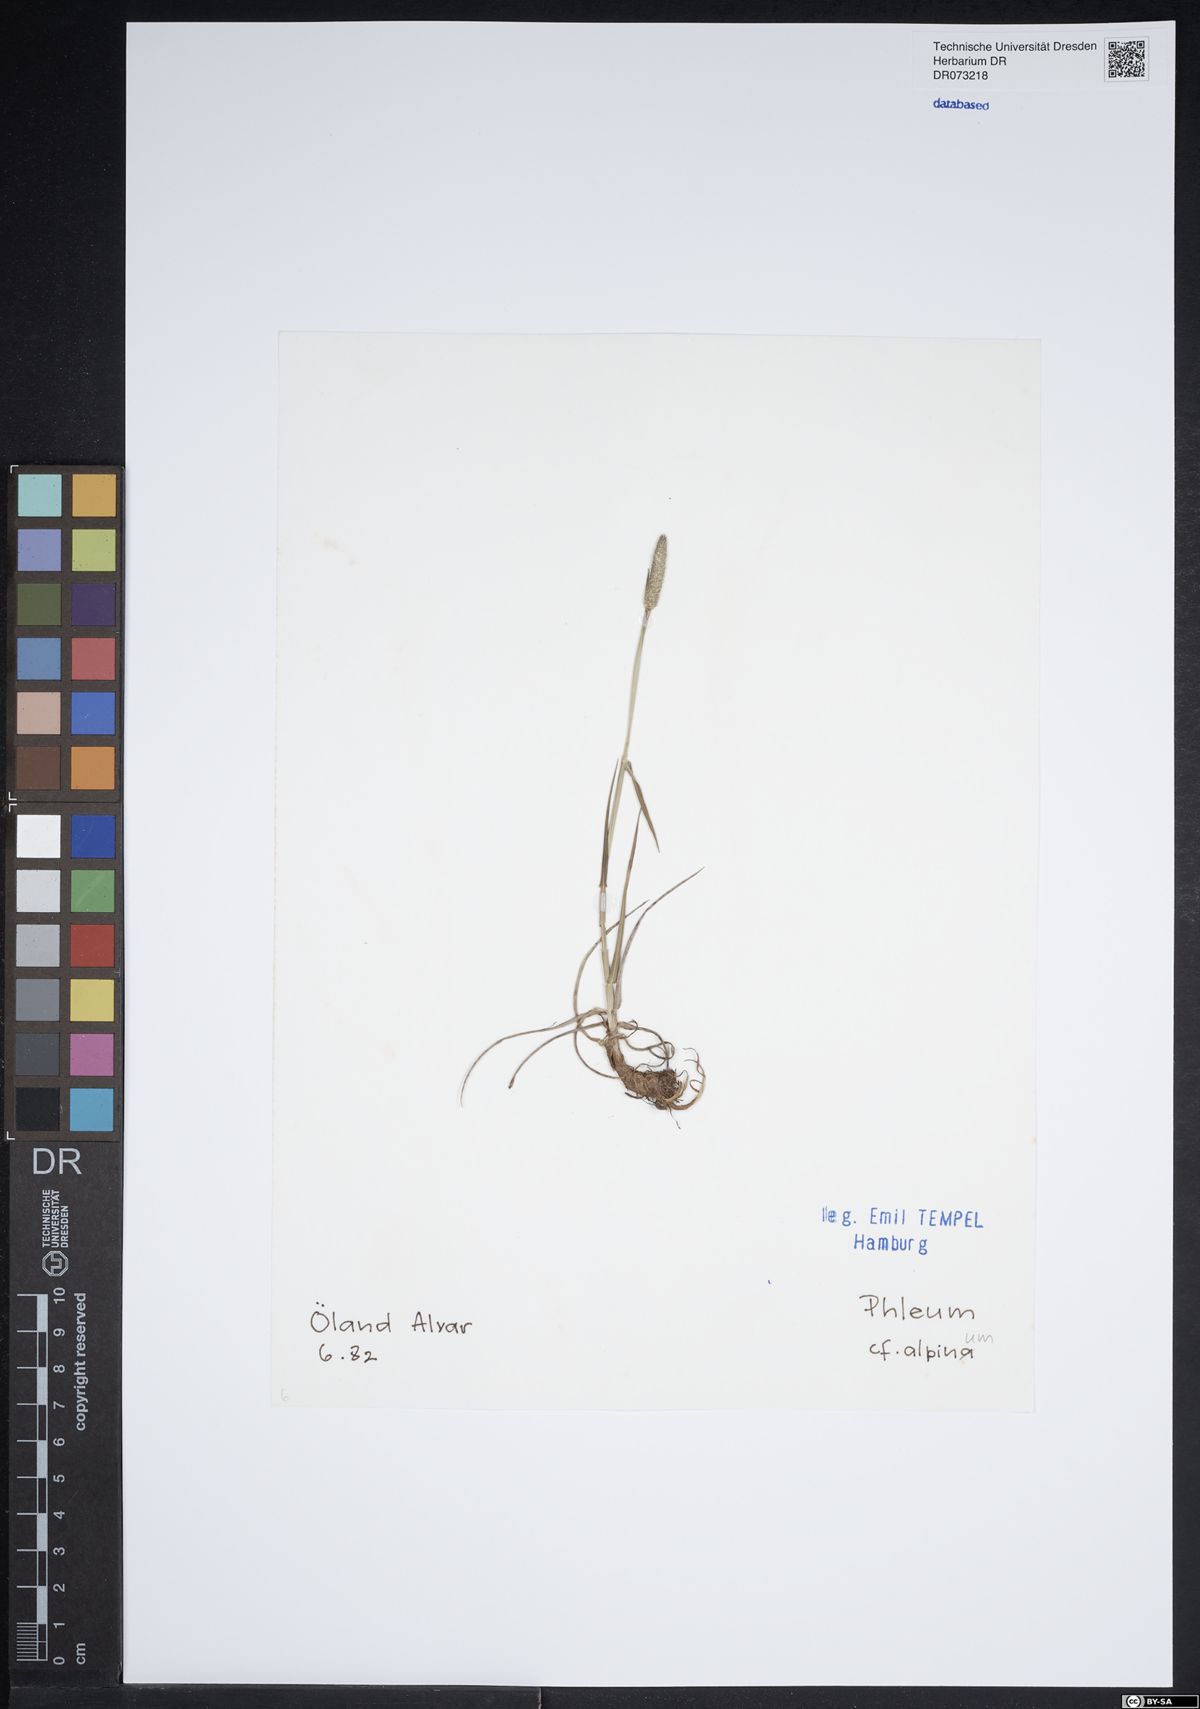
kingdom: Plantae
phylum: Tracheophyta
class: Liliopsida
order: Poales
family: Poaceae
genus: Phleum
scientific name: Phleum alpinum
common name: Alpine cat's-tail
